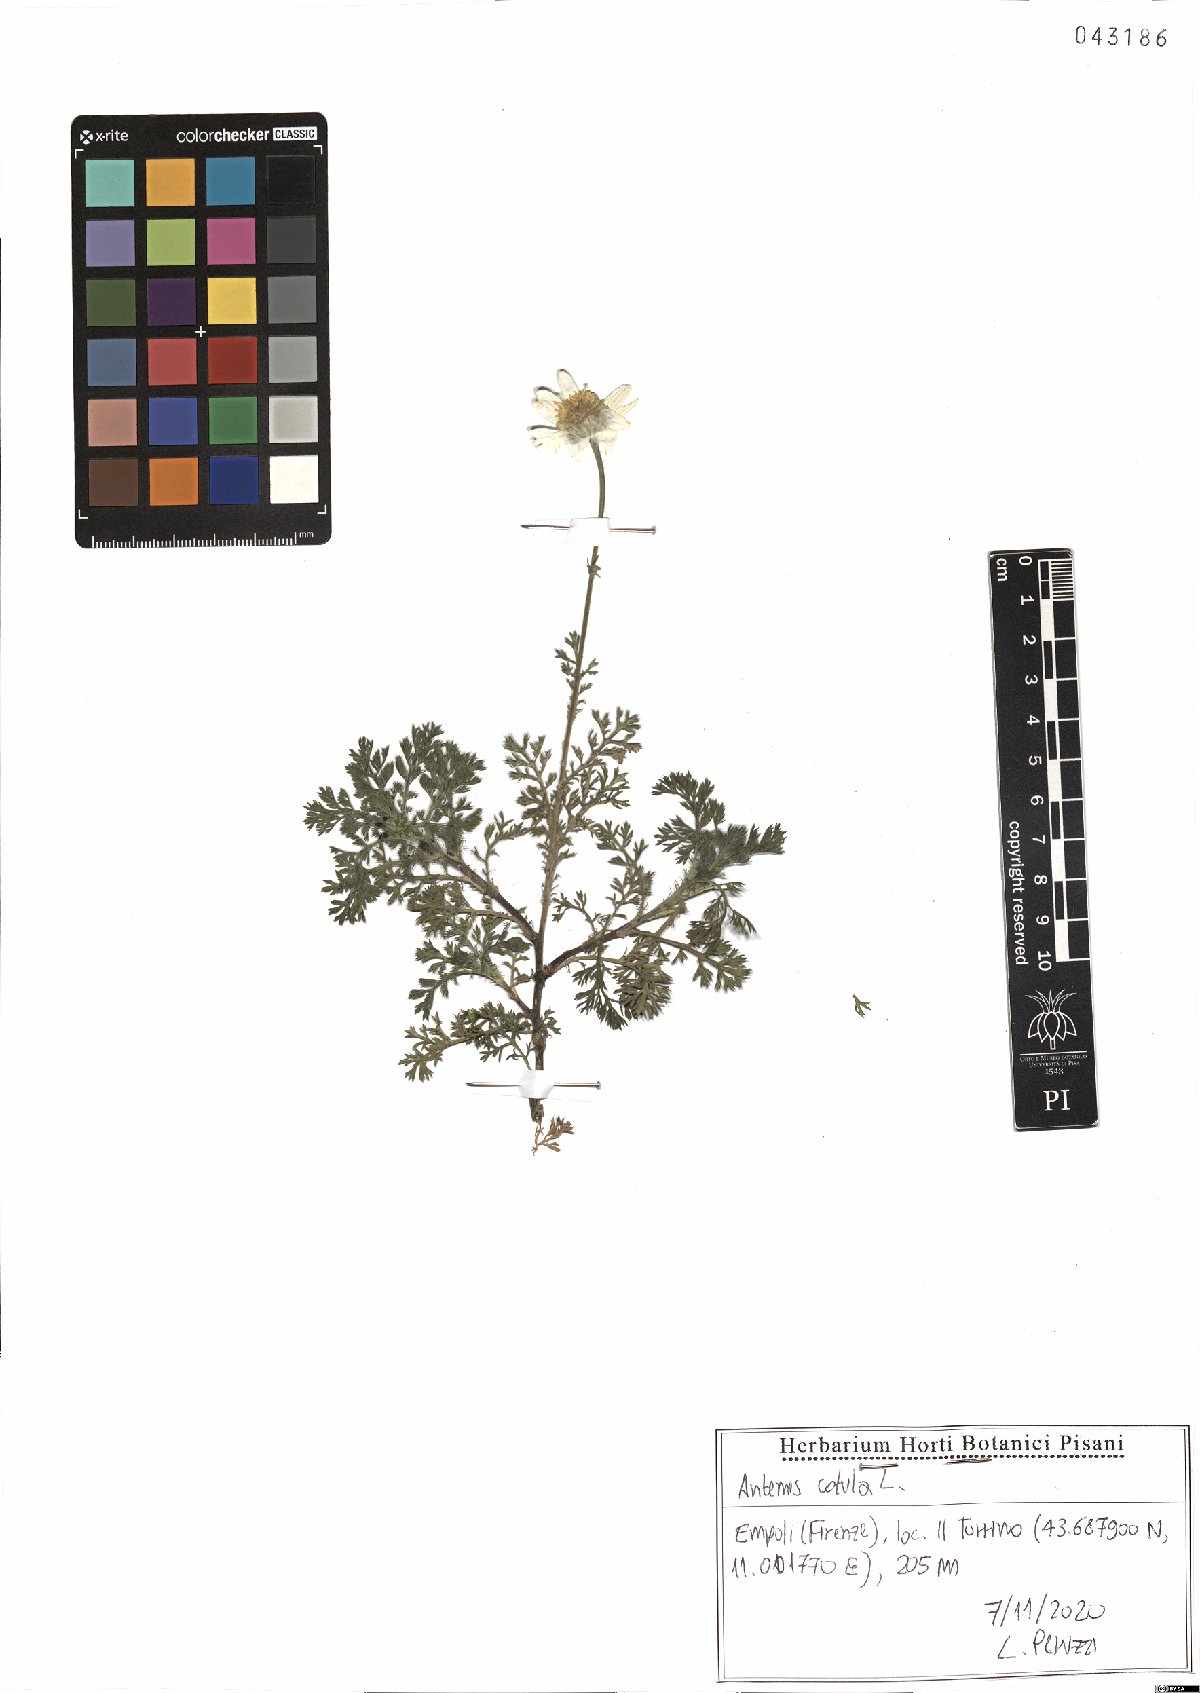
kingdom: Plantae
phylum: Tracheophyta
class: Magnoliopsida
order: Asterales
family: Asteraceae
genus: Anthemis
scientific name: Anthemis cotula
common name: Stinking chamomile
